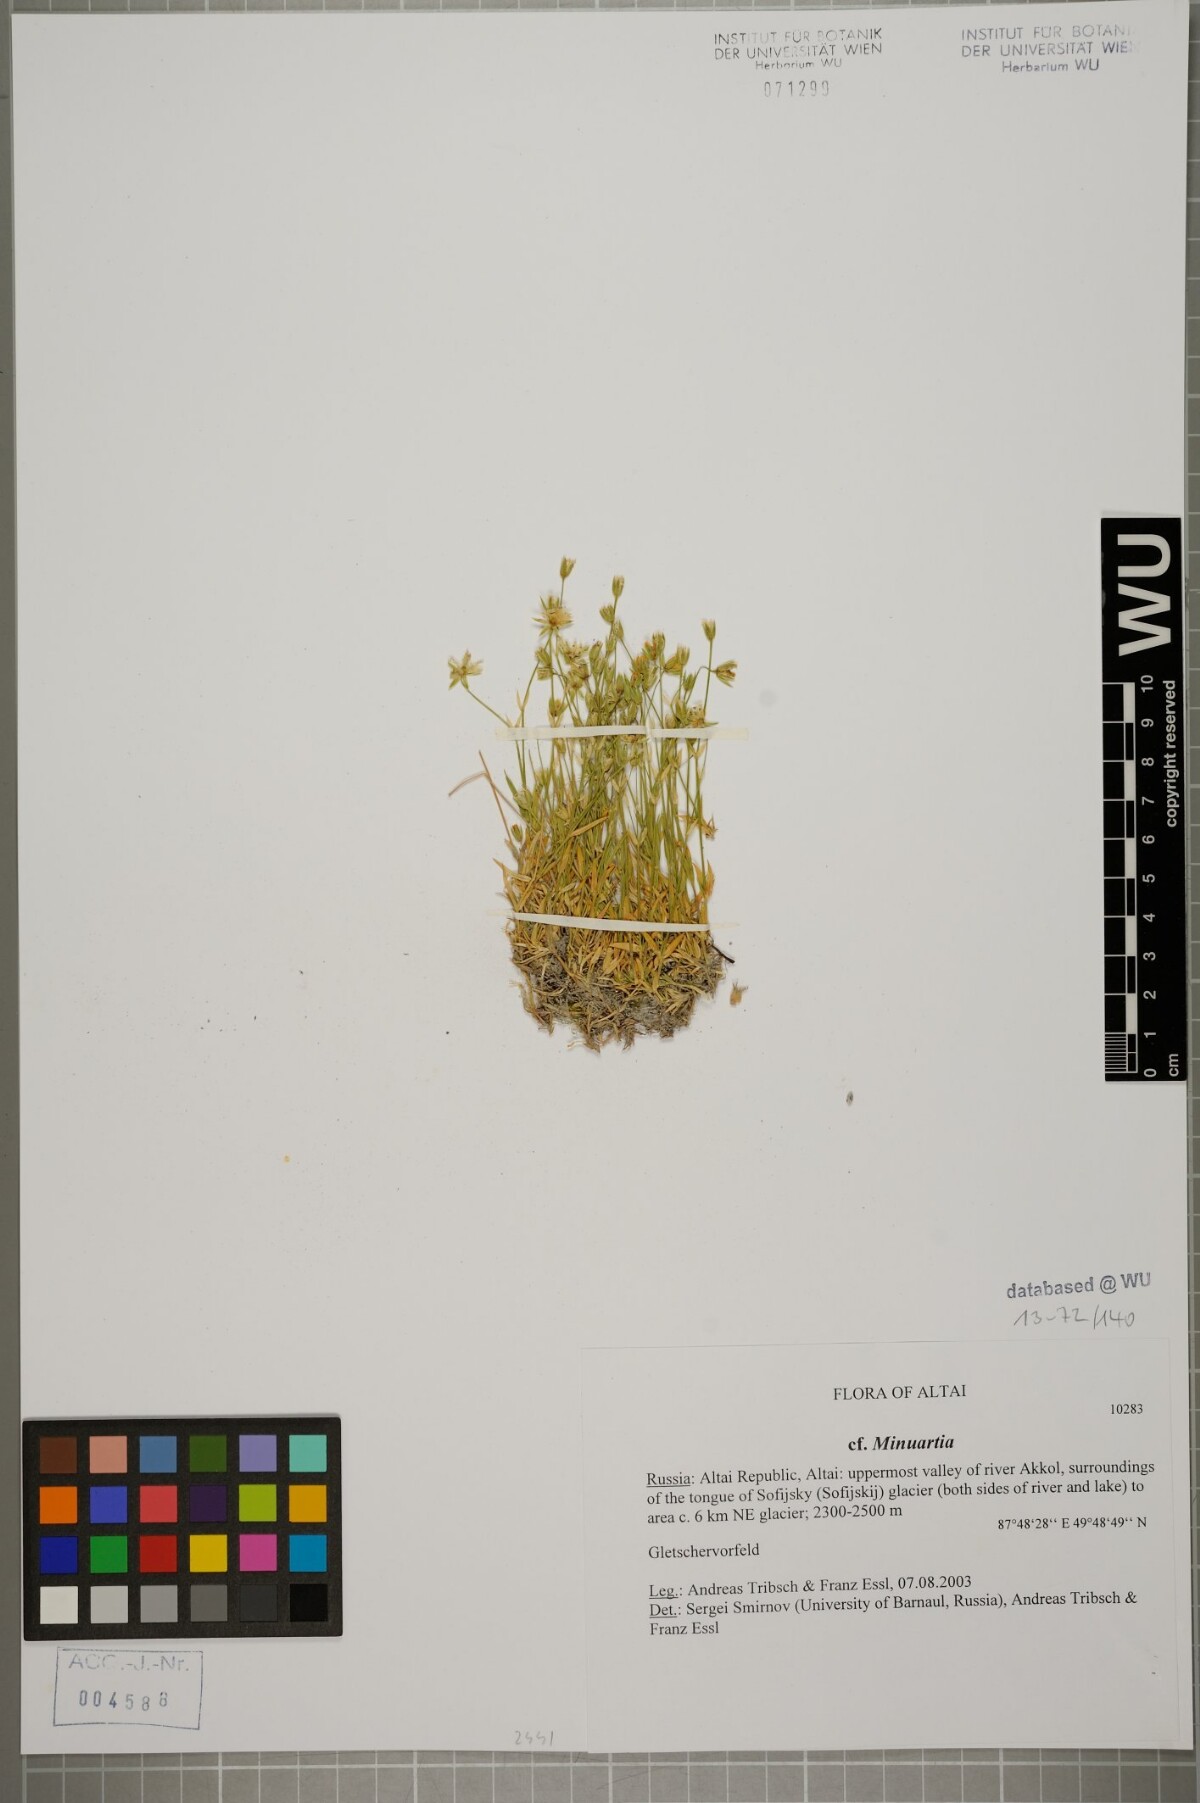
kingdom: Plantae
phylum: Tracheophyta
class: Magnoliopsida
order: Caryophyllales
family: Caryophyllaceae
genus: Stellaria
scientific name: Stellaria peduncularis
